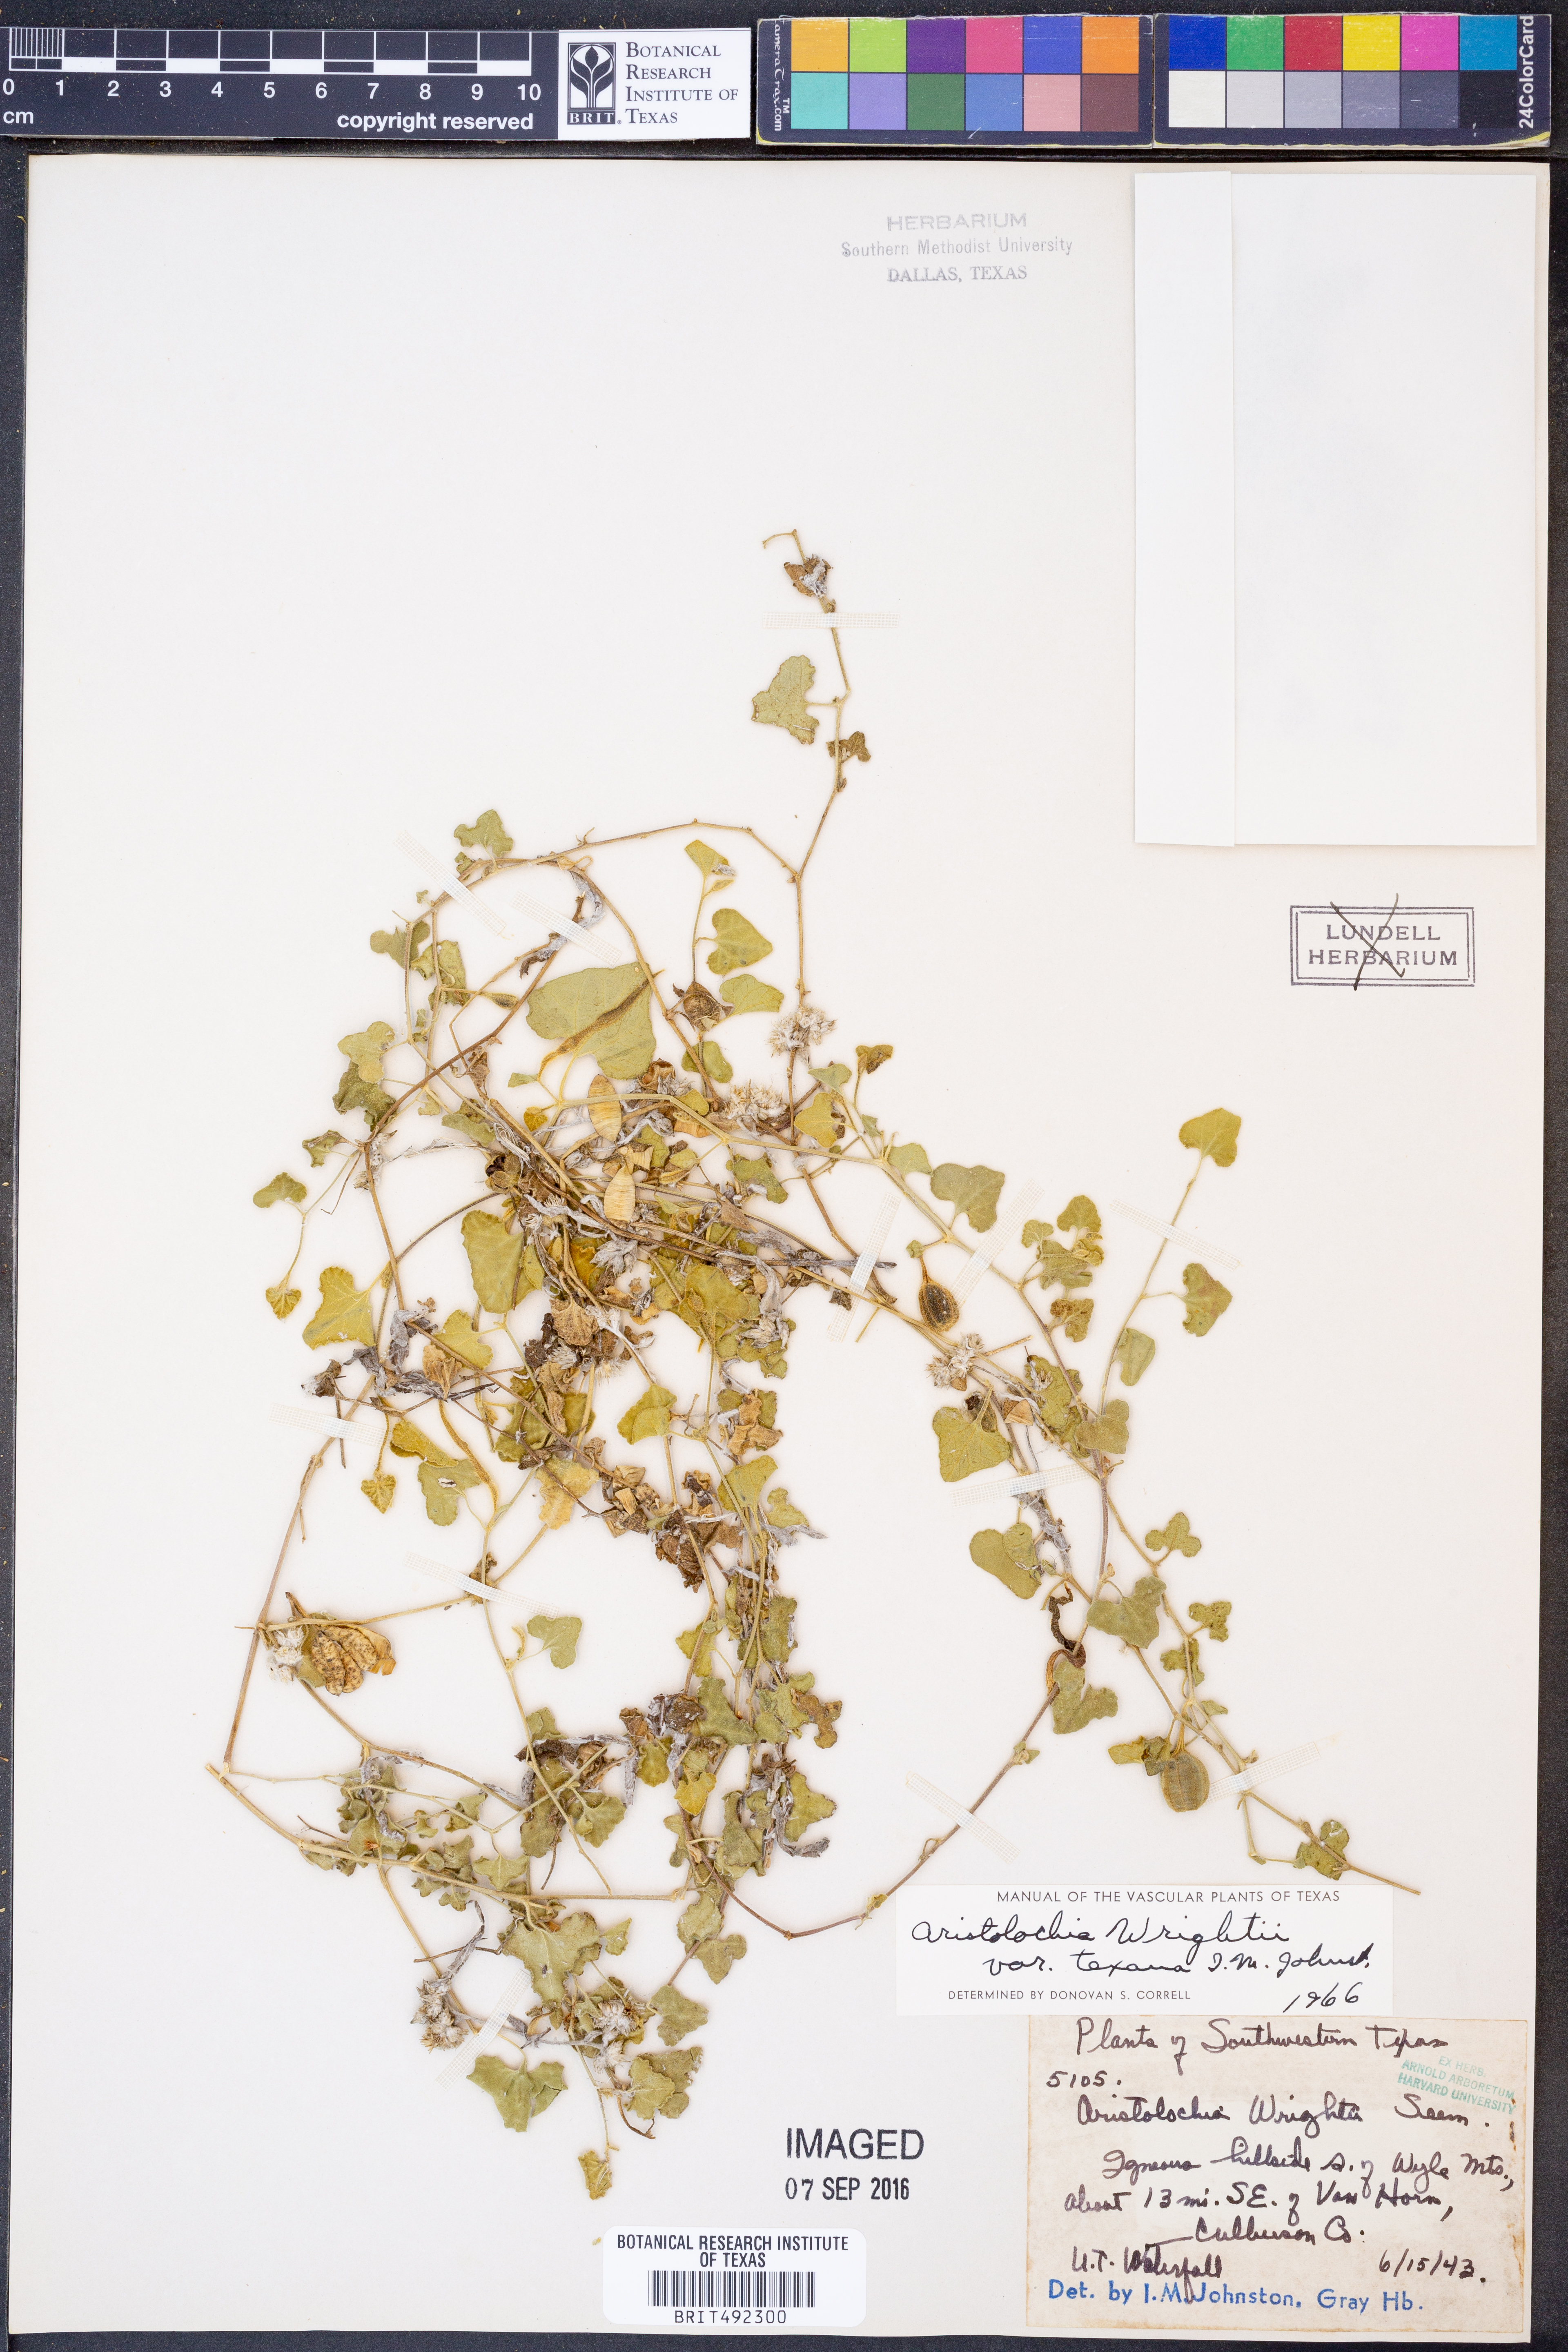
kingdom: Plantae
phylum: Tracheophyta
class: Magnoliopsida
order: Piperales
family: Aristolochiaceae
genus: Aristolochia
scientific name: Aristolochia wrightii
